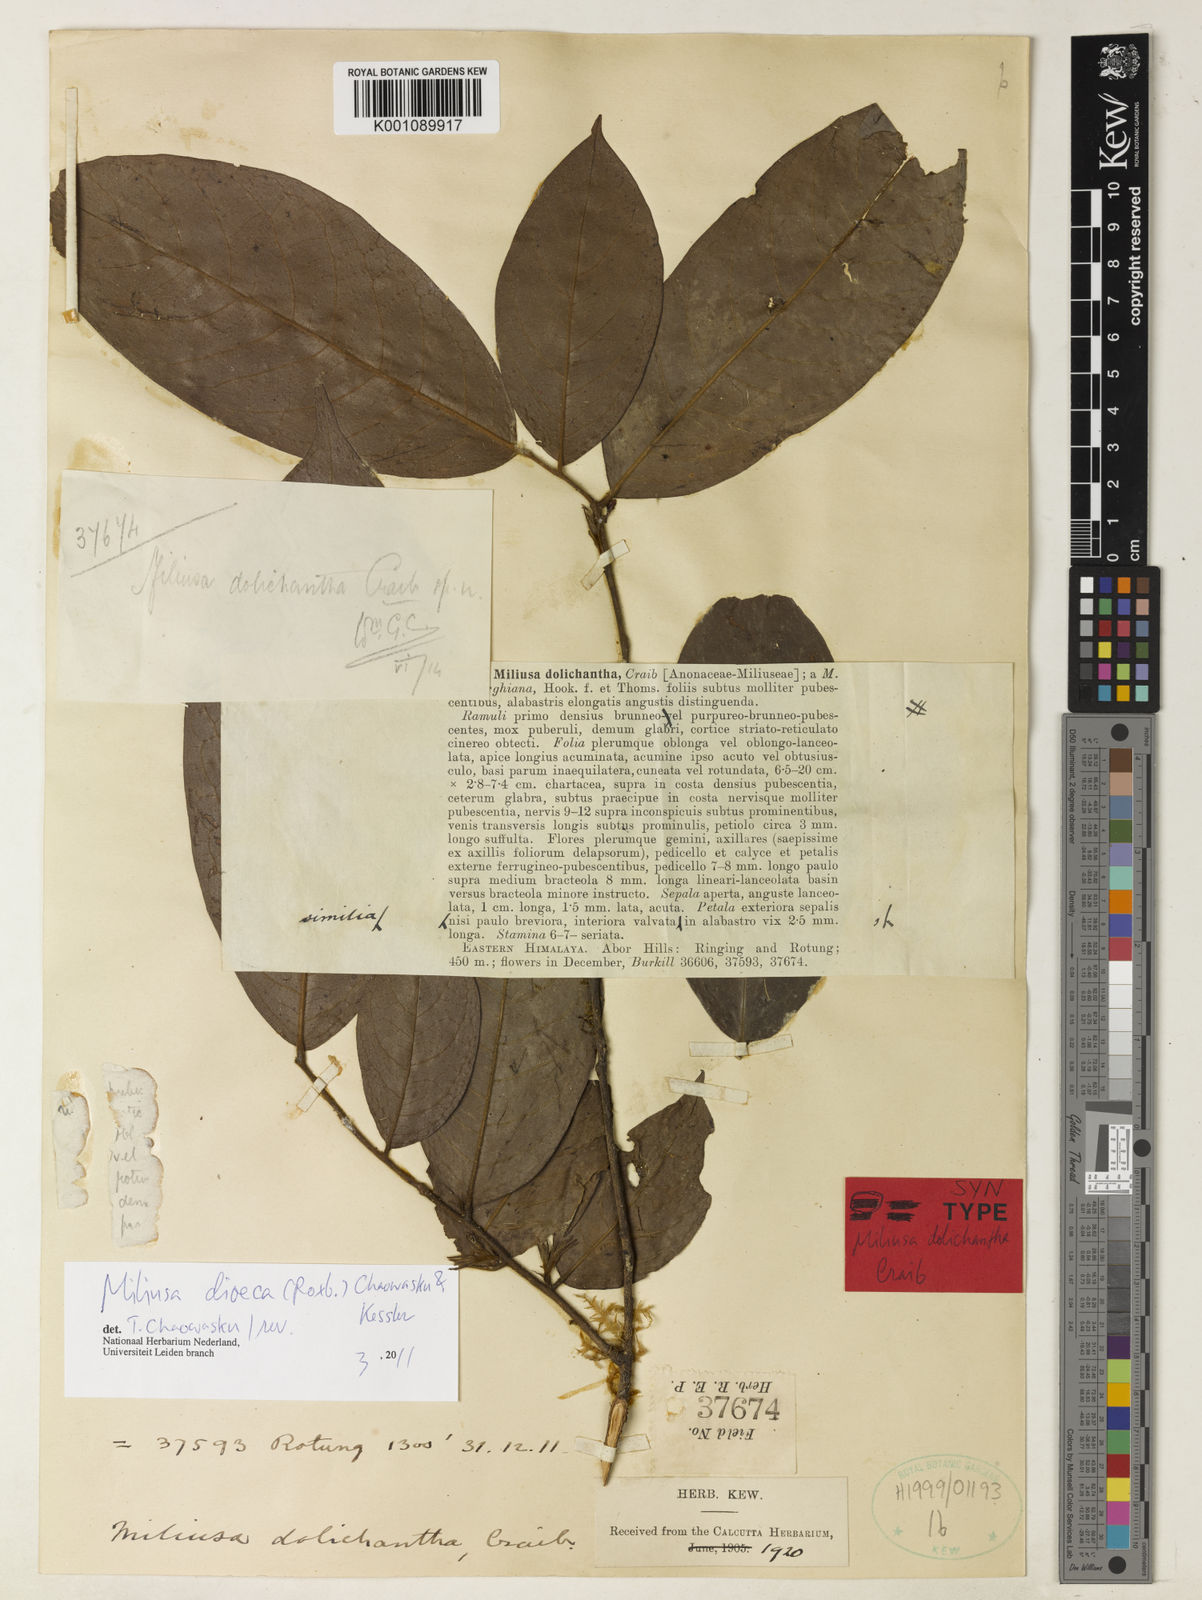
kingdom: Plantae
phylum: Tracheophyta
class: Magnoliopsida
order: Magnoliales
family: Annonaceae
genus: Miliusa
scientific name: Miliusa dolichantha
